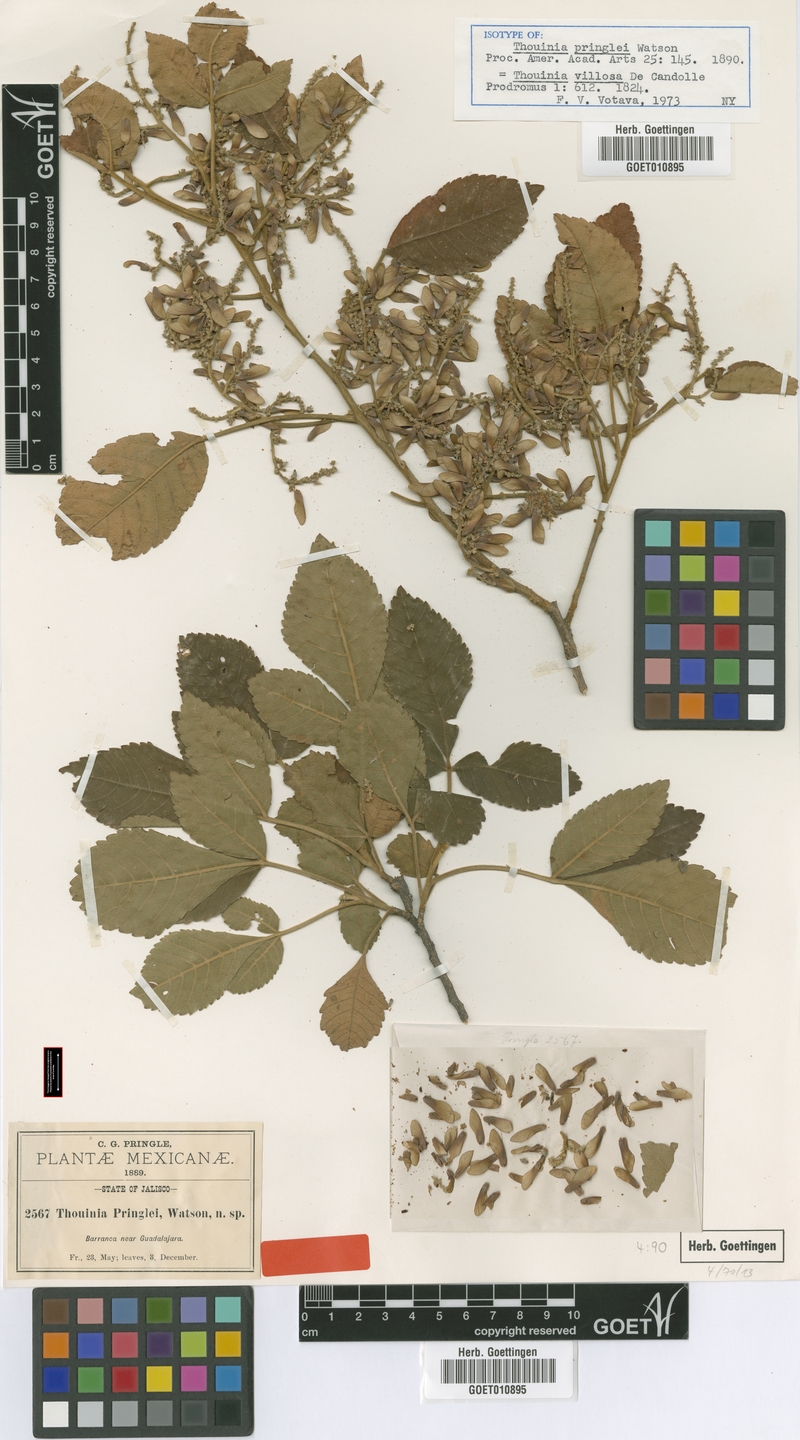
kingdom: Plantae
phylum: Tracheophyta
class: Magnoliopsida
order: Sapindales
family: Sapindaceae
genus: Thouinia
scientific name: Thouinia villosa
